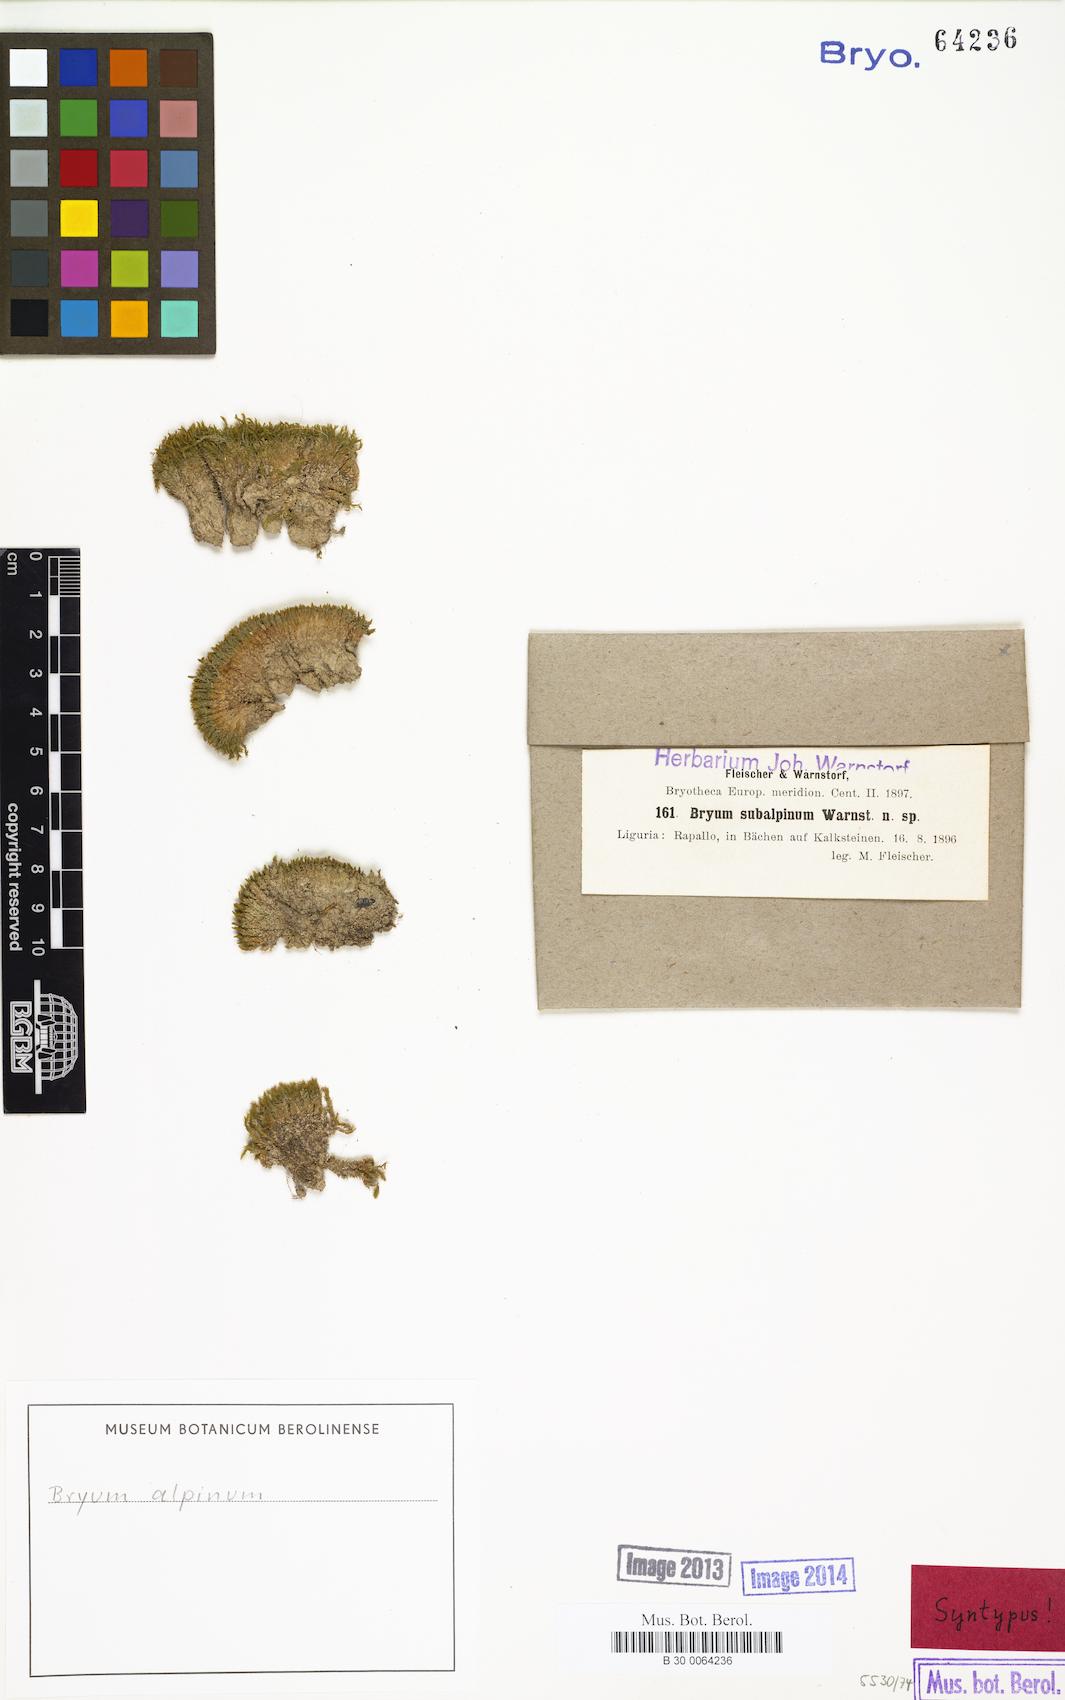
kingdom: Plantae
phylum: Bryophyta
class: Bryopsida
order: Bryales
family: Bryaceae
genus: Imbribryum
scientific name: Imbribryum alpinum
